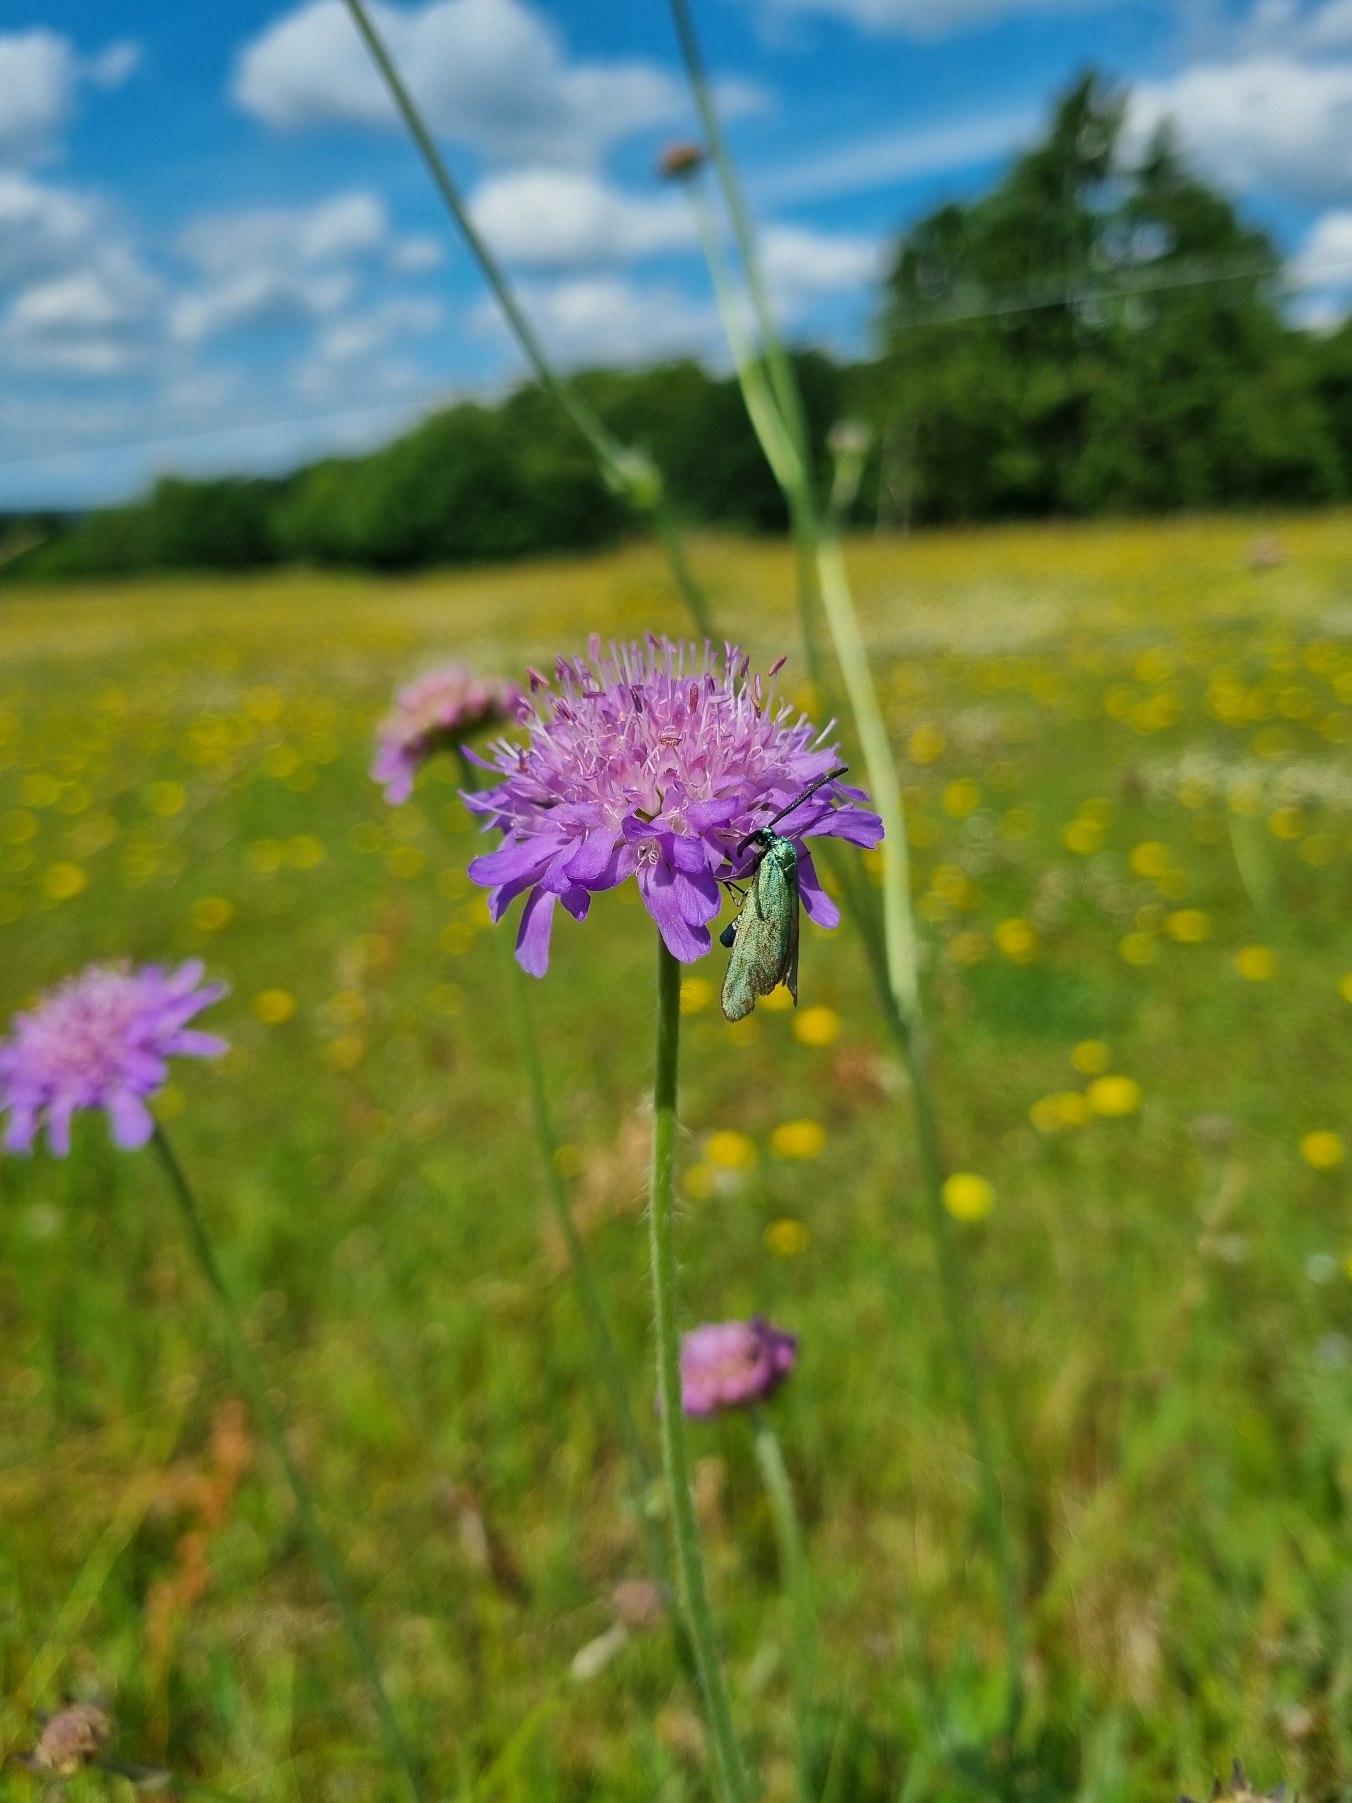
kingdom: Plantae
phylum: Tracheophyta
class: Magnoliopsida
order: Dipsacales
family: Caprifoliaceae
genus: Knautia
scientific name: Knautia arvensis
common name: Blåhat
